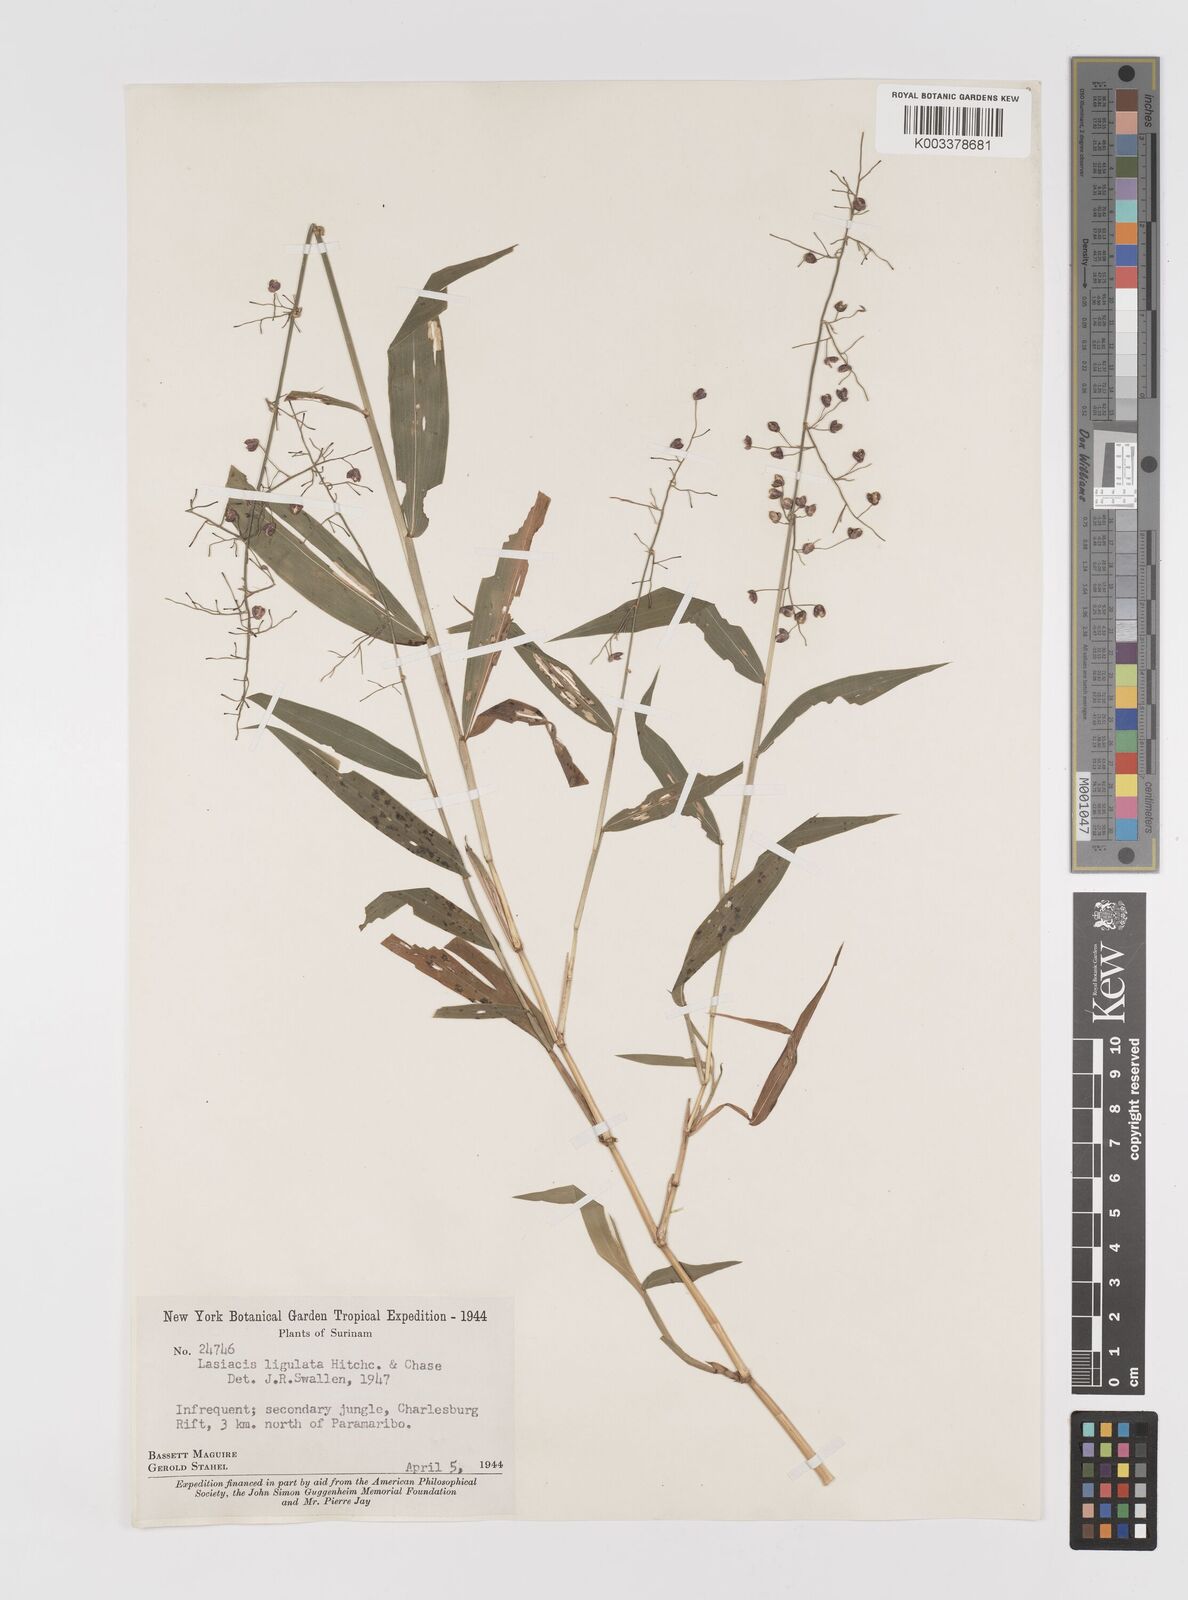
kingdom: Plantae
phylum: Tracheophyta
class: Liliopsida
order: Poales
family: Poaceae
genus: Lasiacis
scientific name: Lasiacis ligulata
